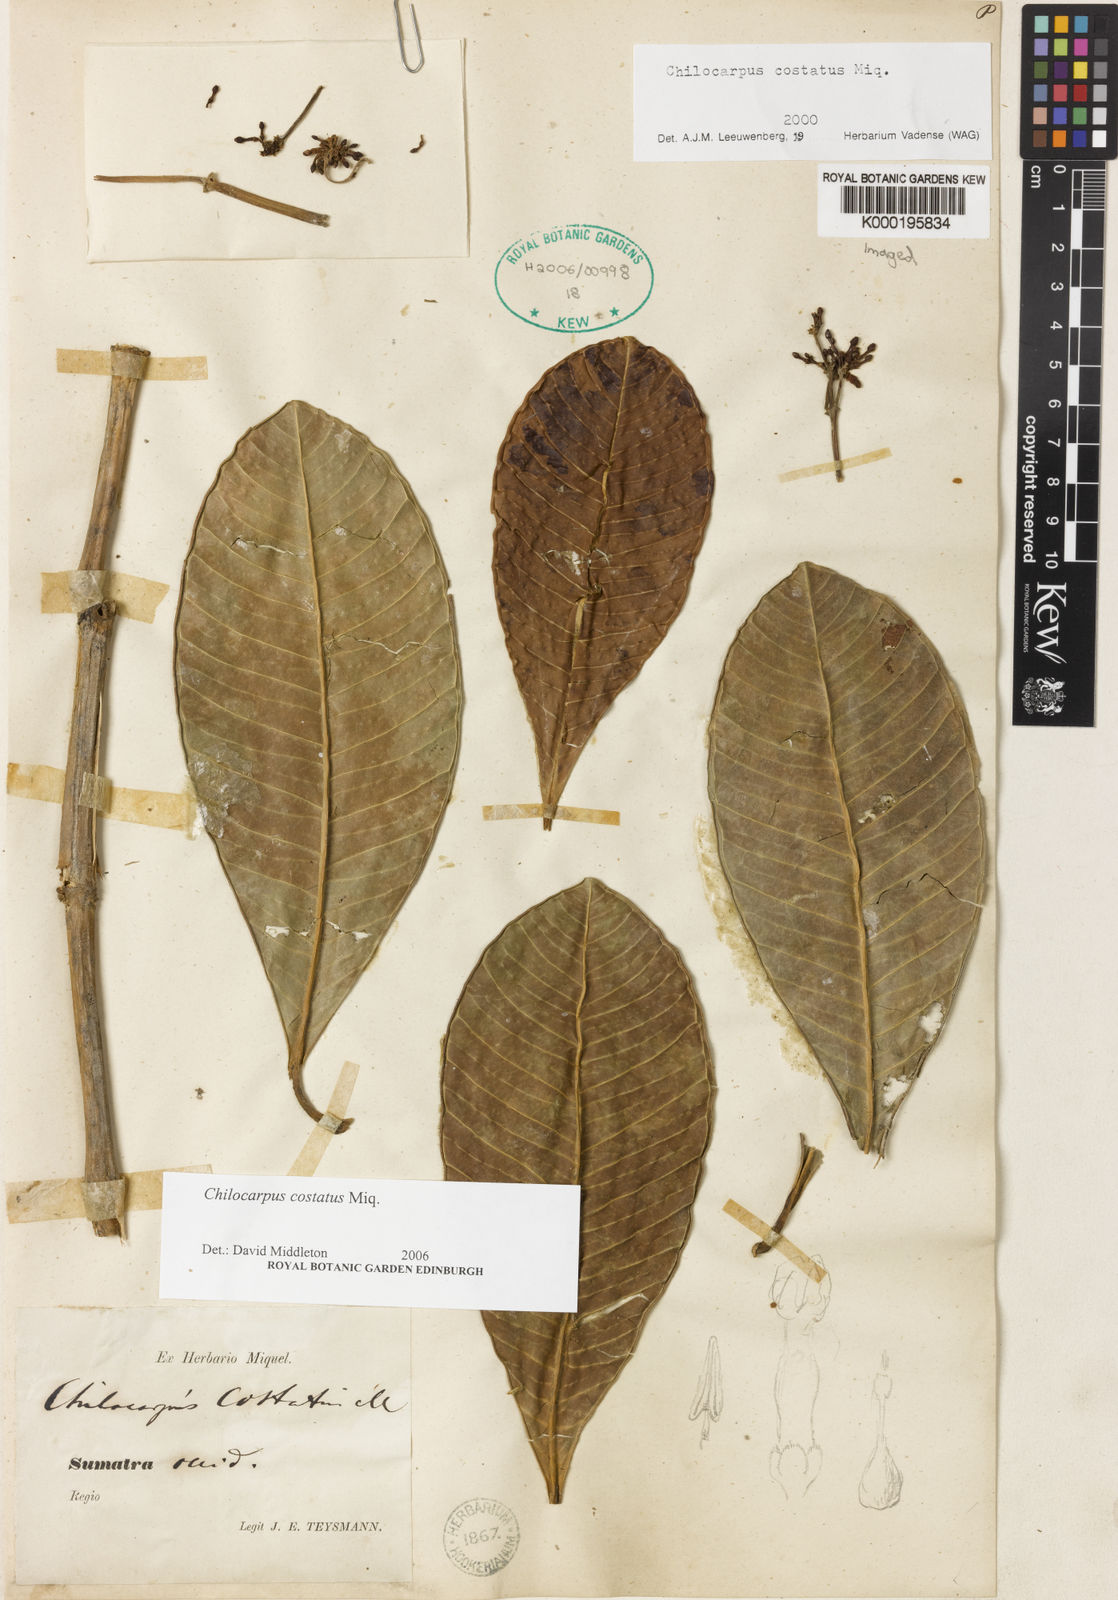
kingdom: Plantae
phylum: Tracheophyta
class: Magnoliopsida
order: Gentianales
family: Apocynaceae
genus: Chilocarpus
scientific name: Chilocarpus costatus
